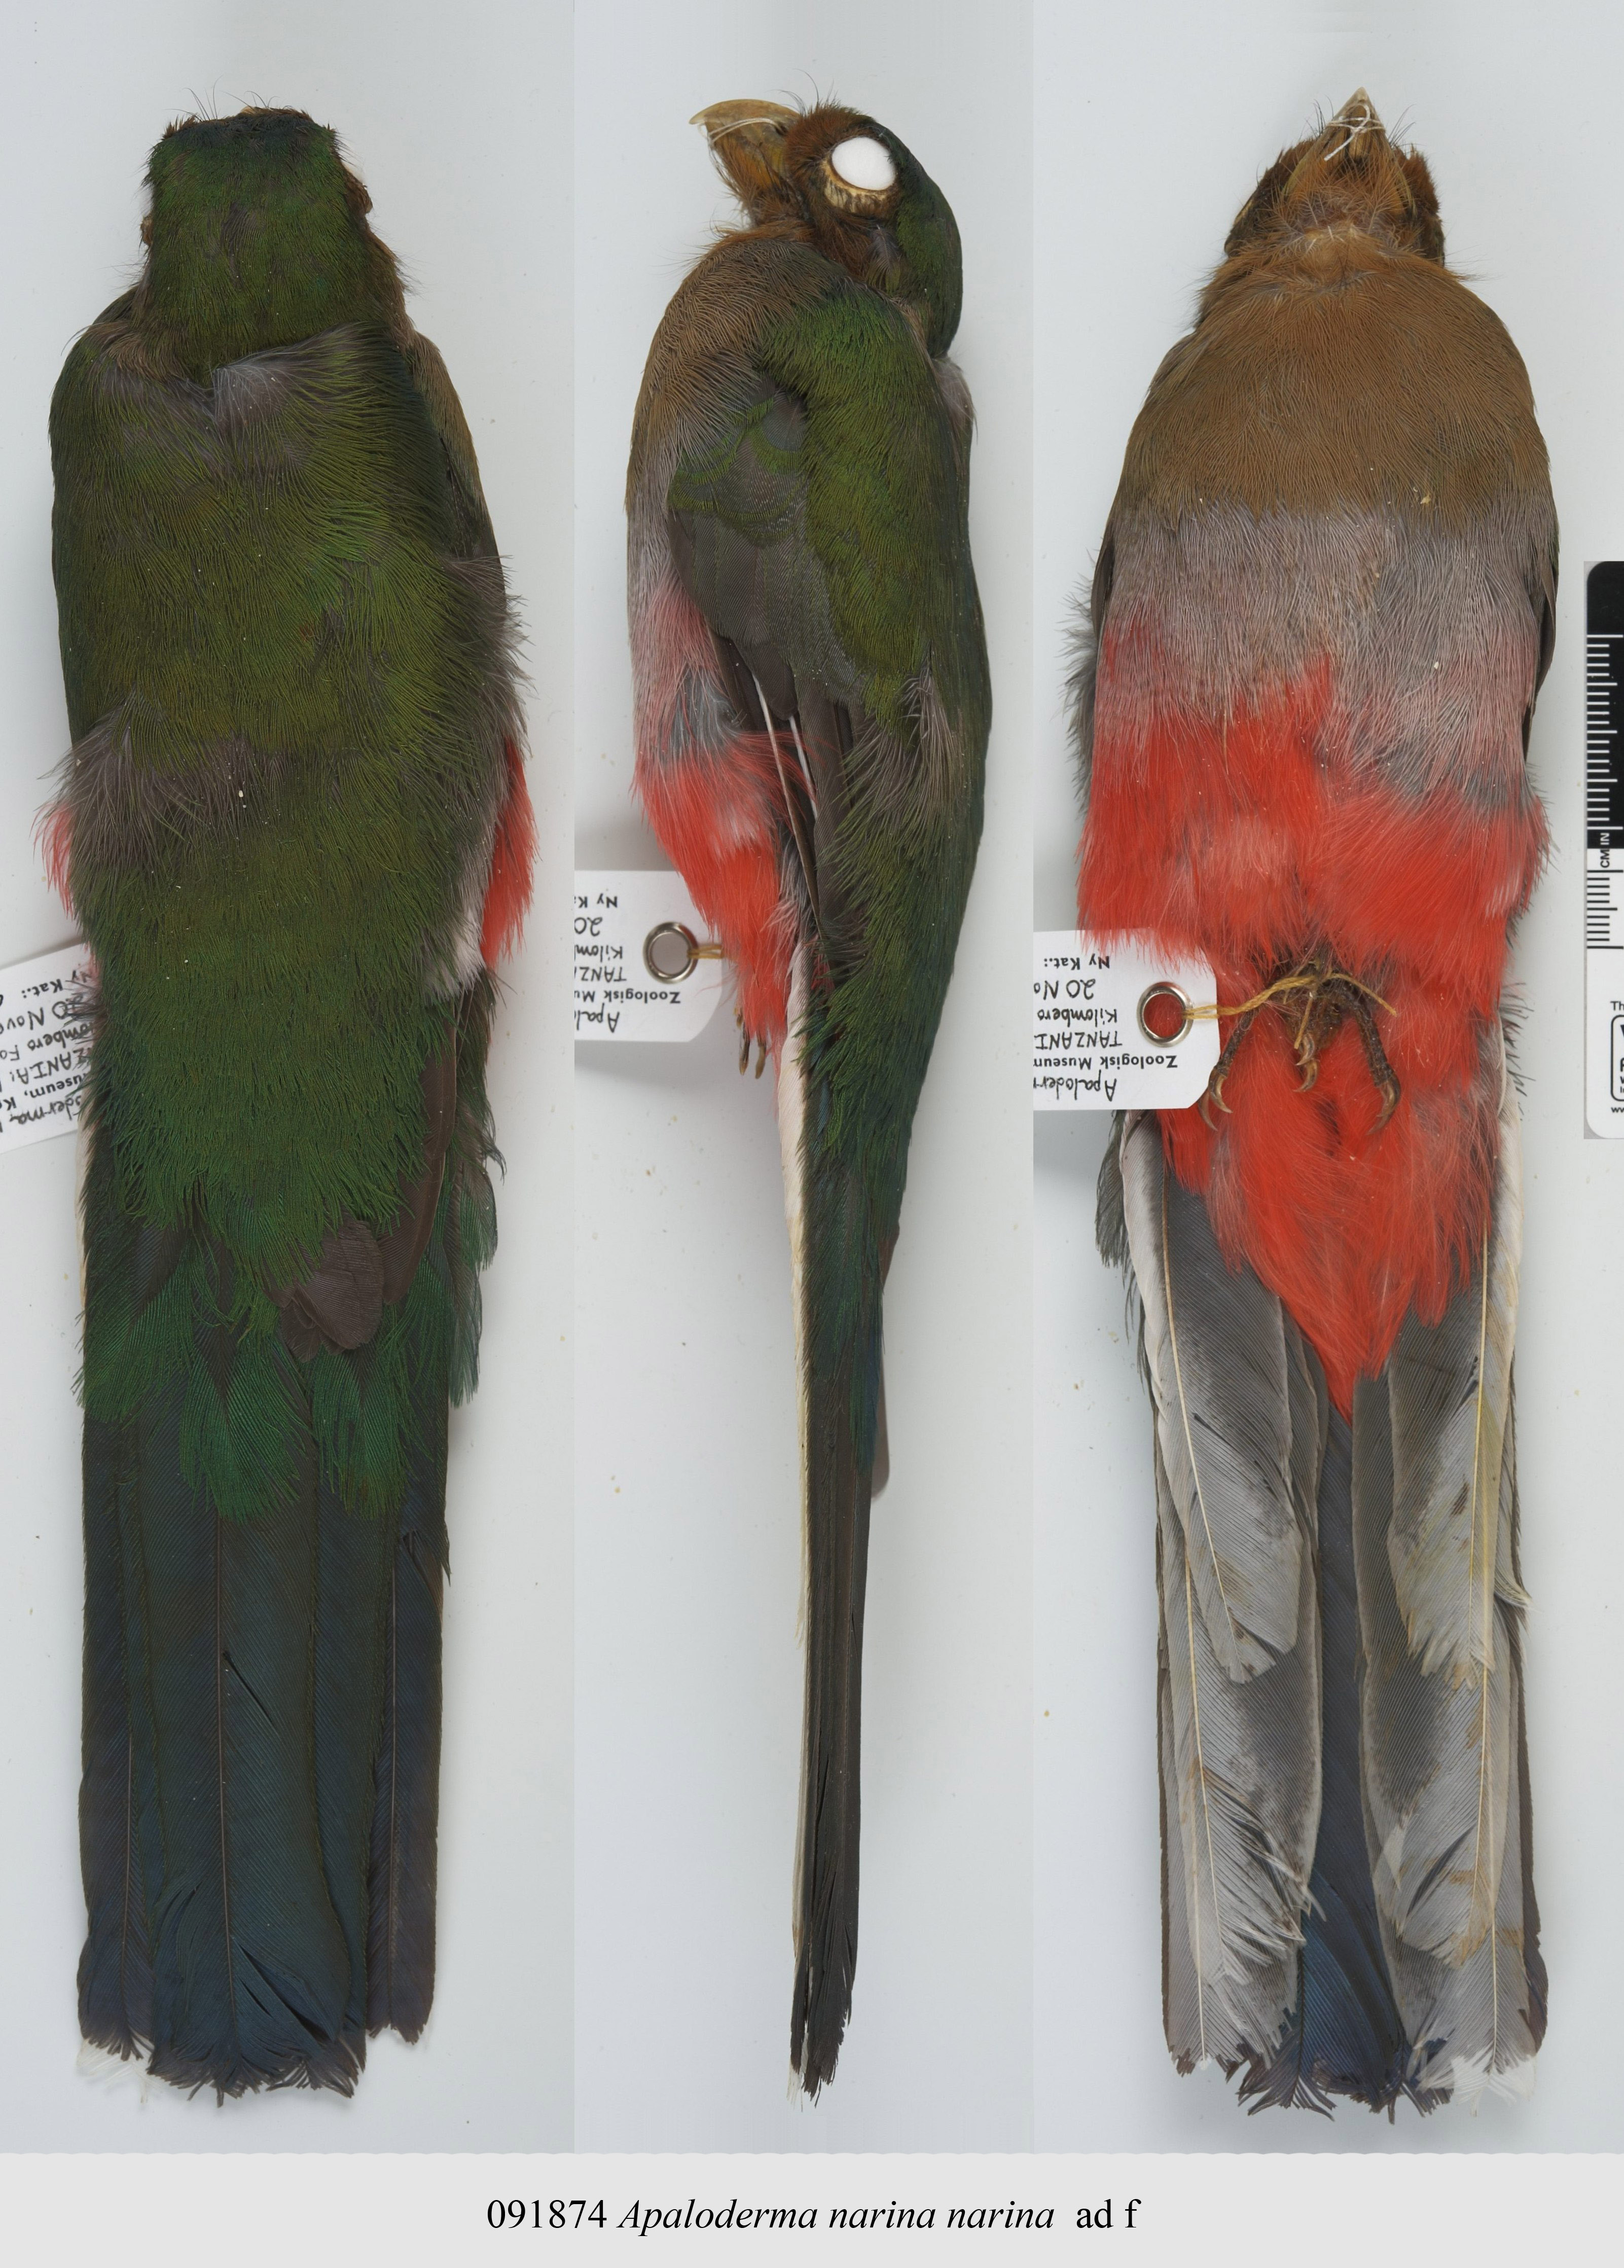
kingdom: Animalia
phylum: Chordata
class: Aves
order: Trogoniformes
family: Trogonidae
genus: Apaloderma
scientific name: Apaloderma narina
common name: Narina trogon
